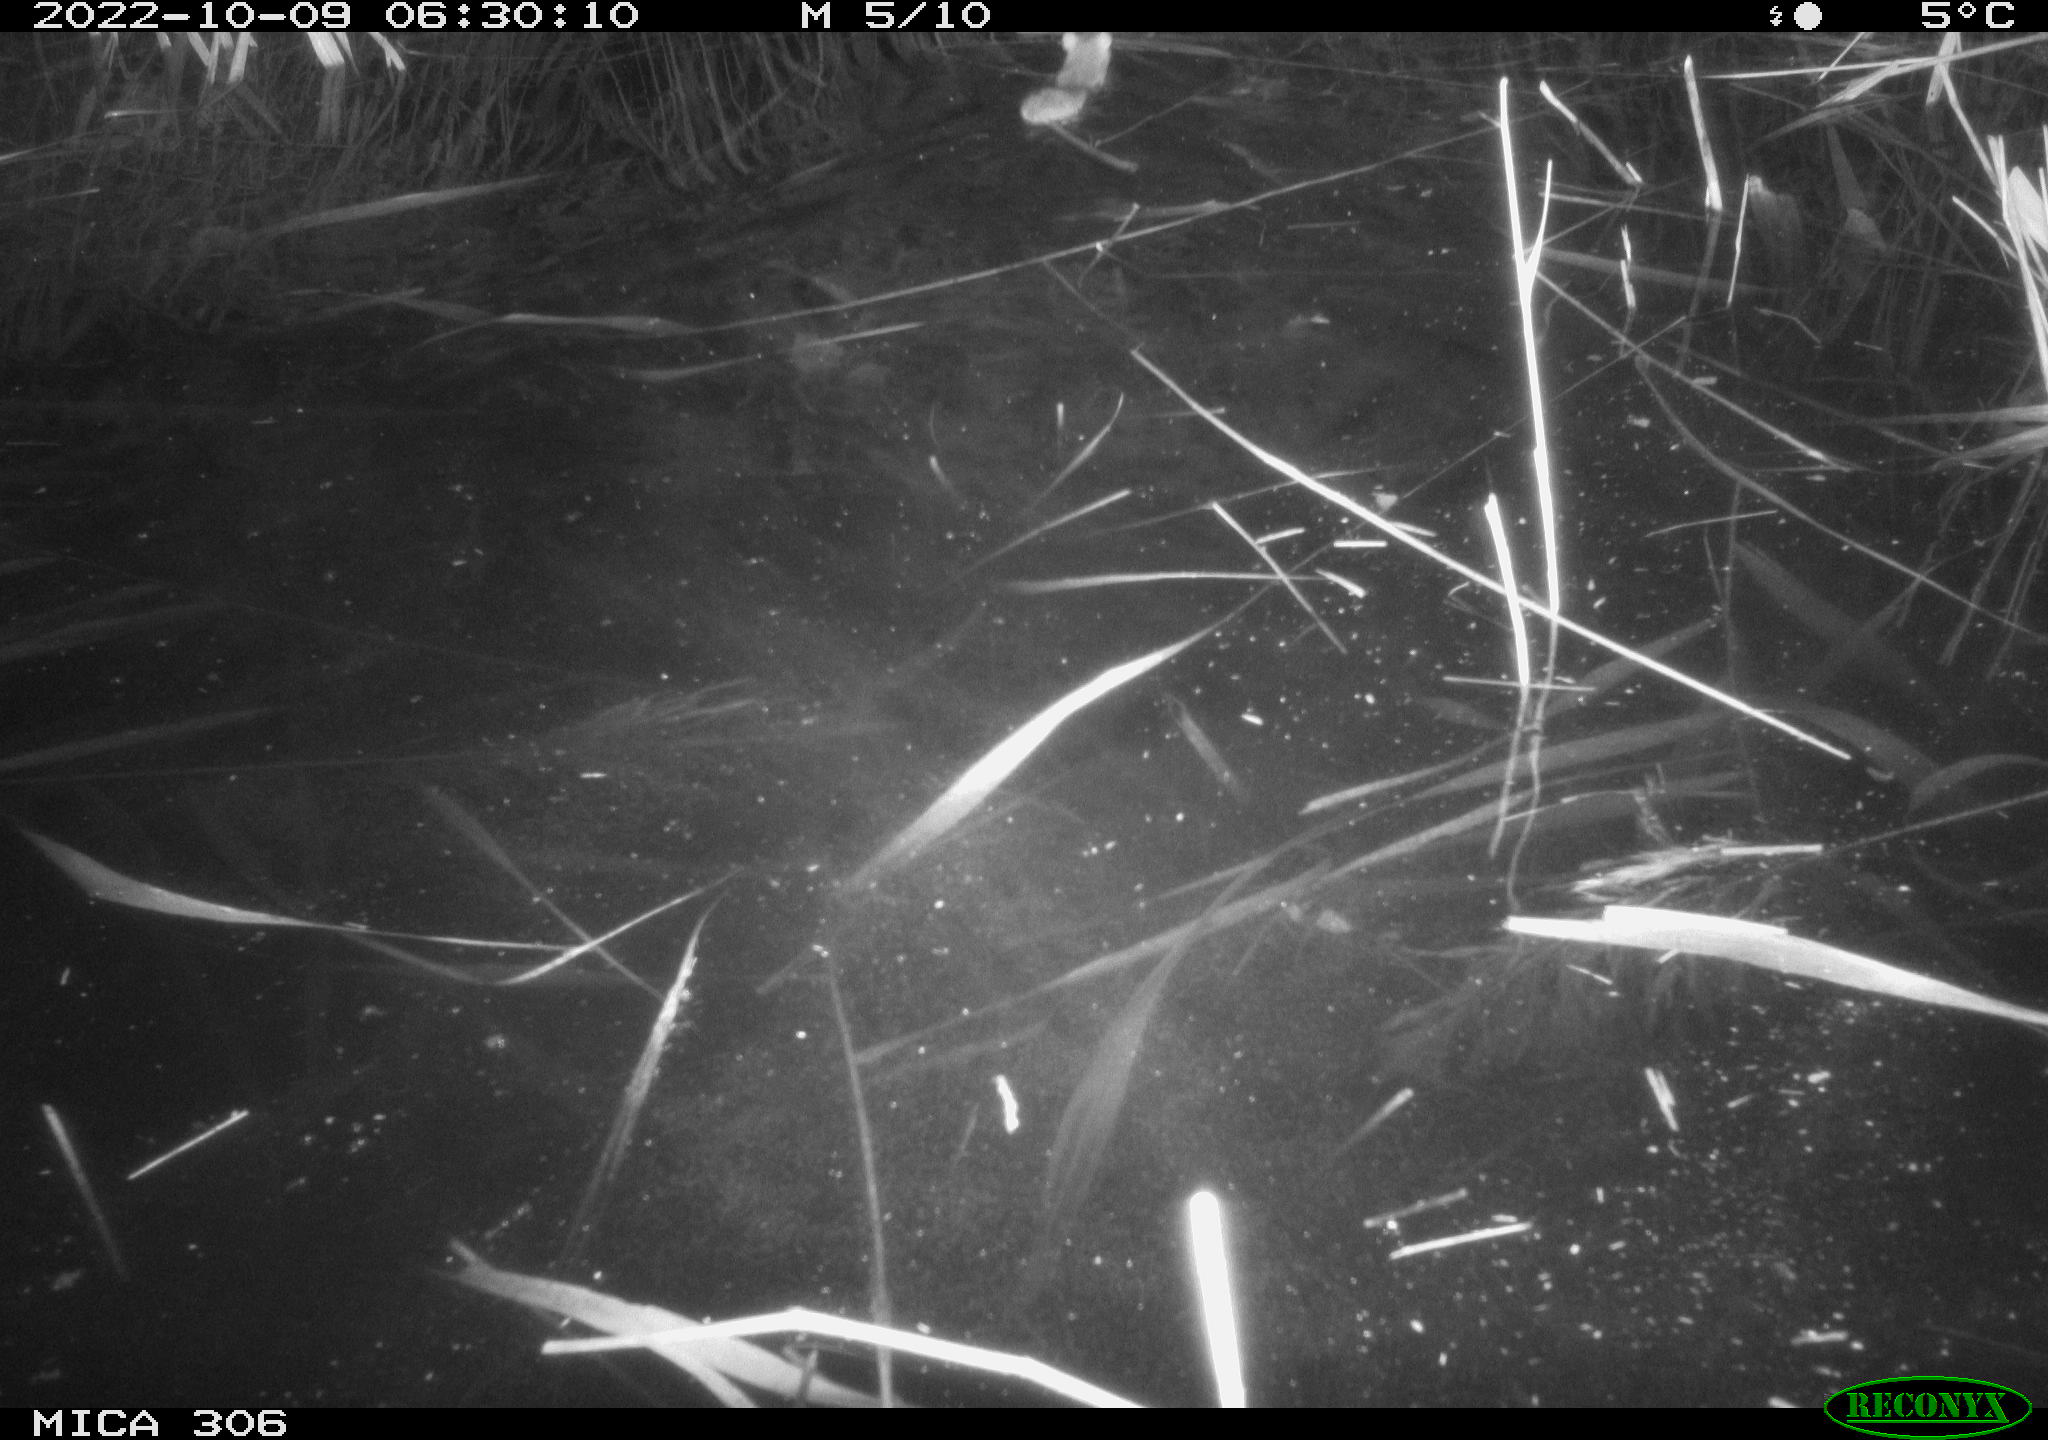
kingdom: Animalia
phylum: Chordata
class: Mammalia
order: Rodentia
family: Muridae
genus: Rattus
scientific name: Rattus norvegicus
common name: Brown rat
